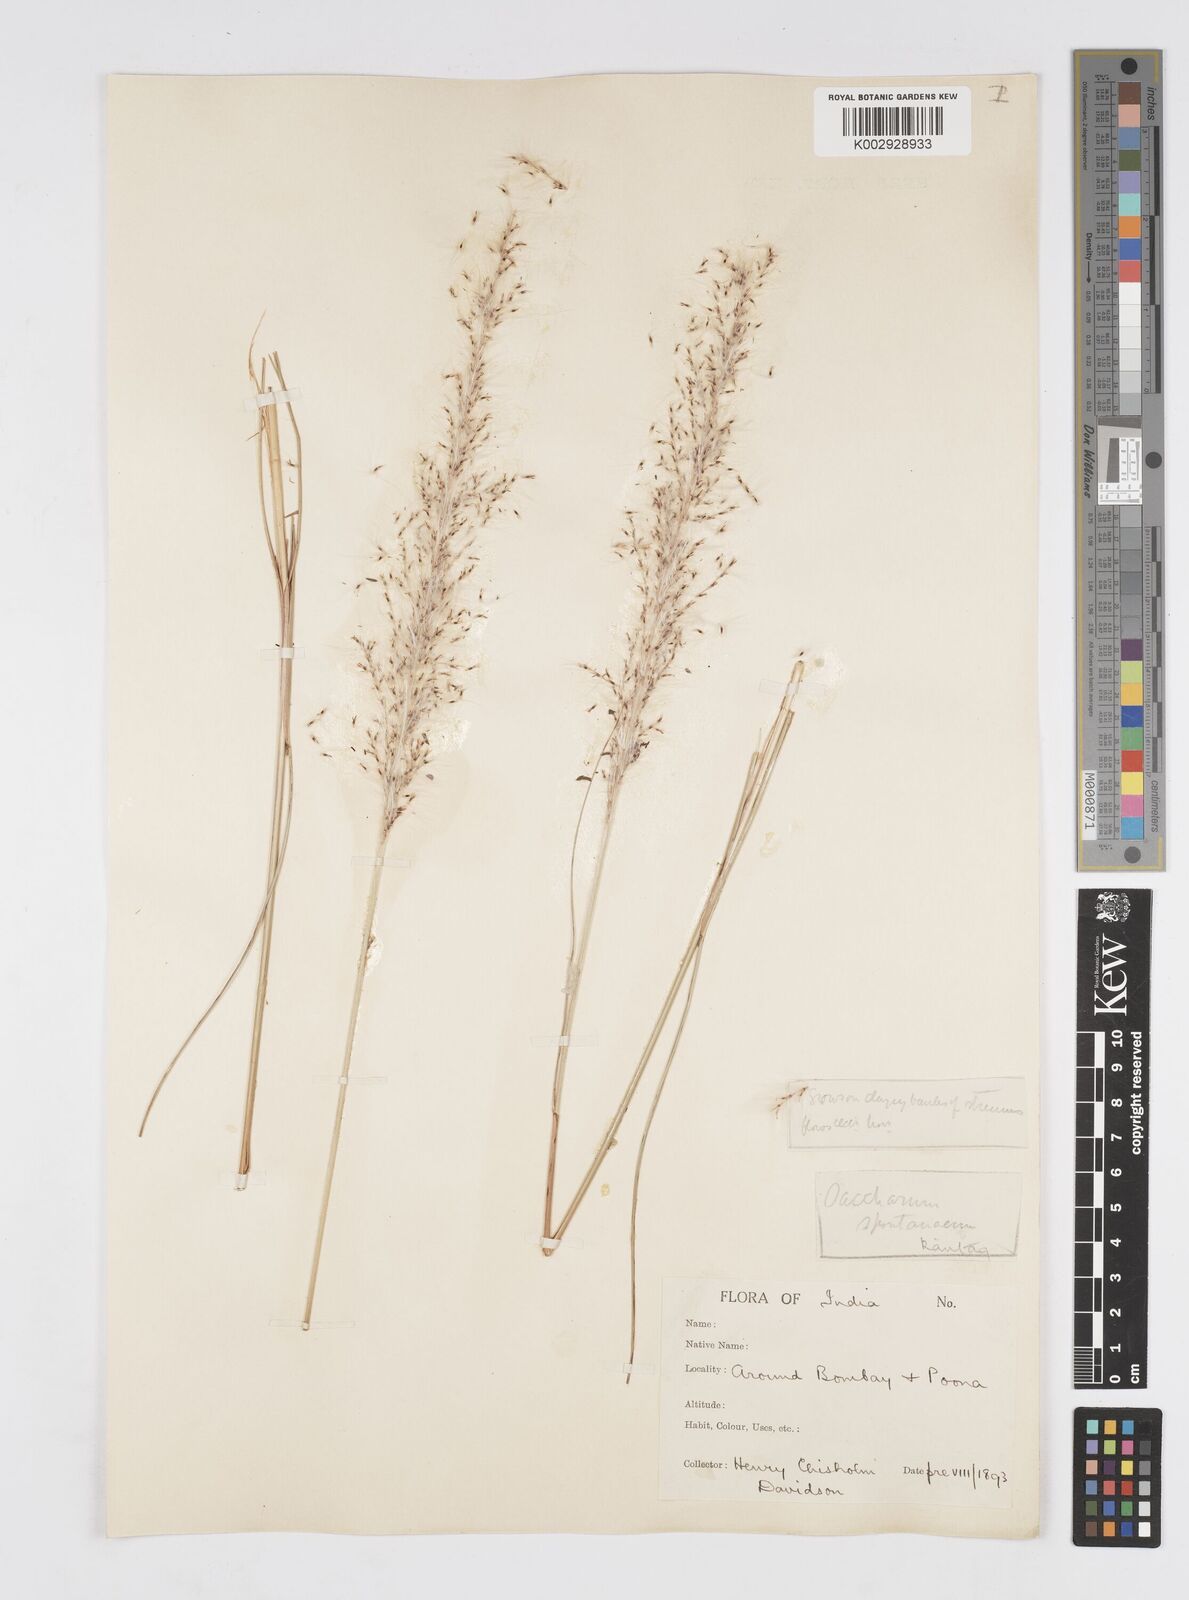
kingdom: Plantae
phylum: Tracheophyta
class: Liliopsida
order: Poales
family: Poaceae
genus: Saccharum
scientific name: Saccharum spontaneum
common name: Wild sugarcane
